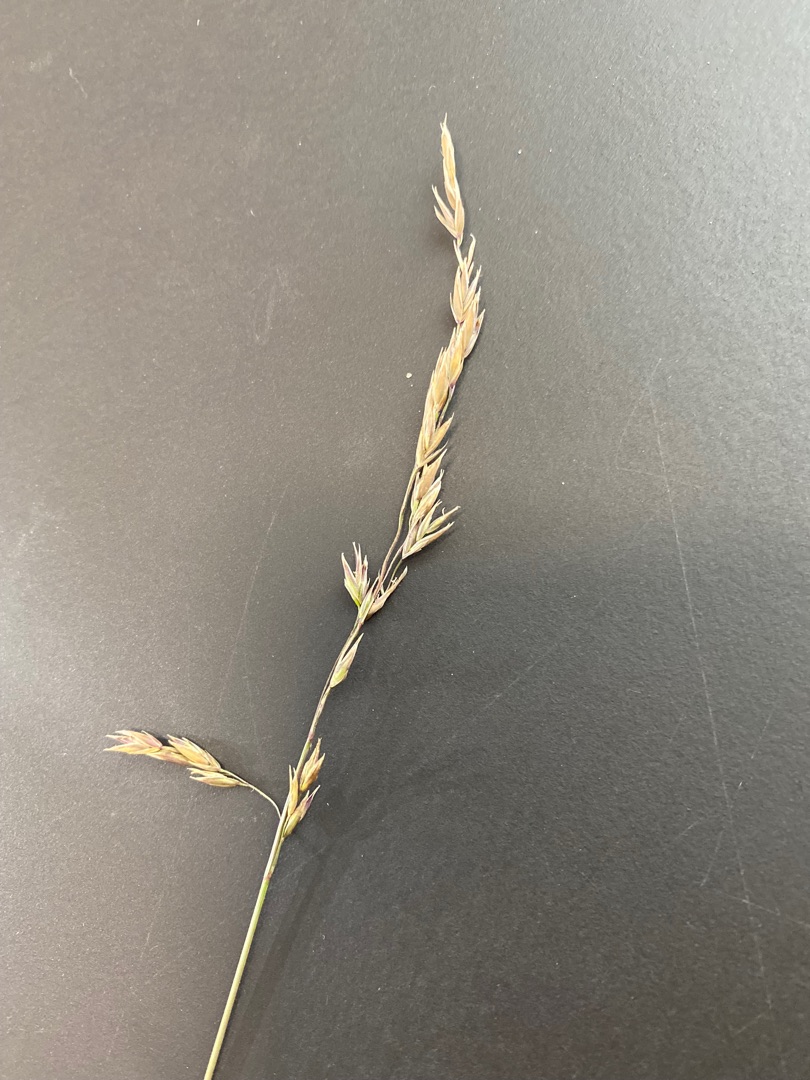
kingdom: Plantae
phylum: Tracheophyta
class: Liliopsida
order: Poales
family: Poaceae
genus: Festuca
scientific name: Festuca
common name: Svingelslægten
